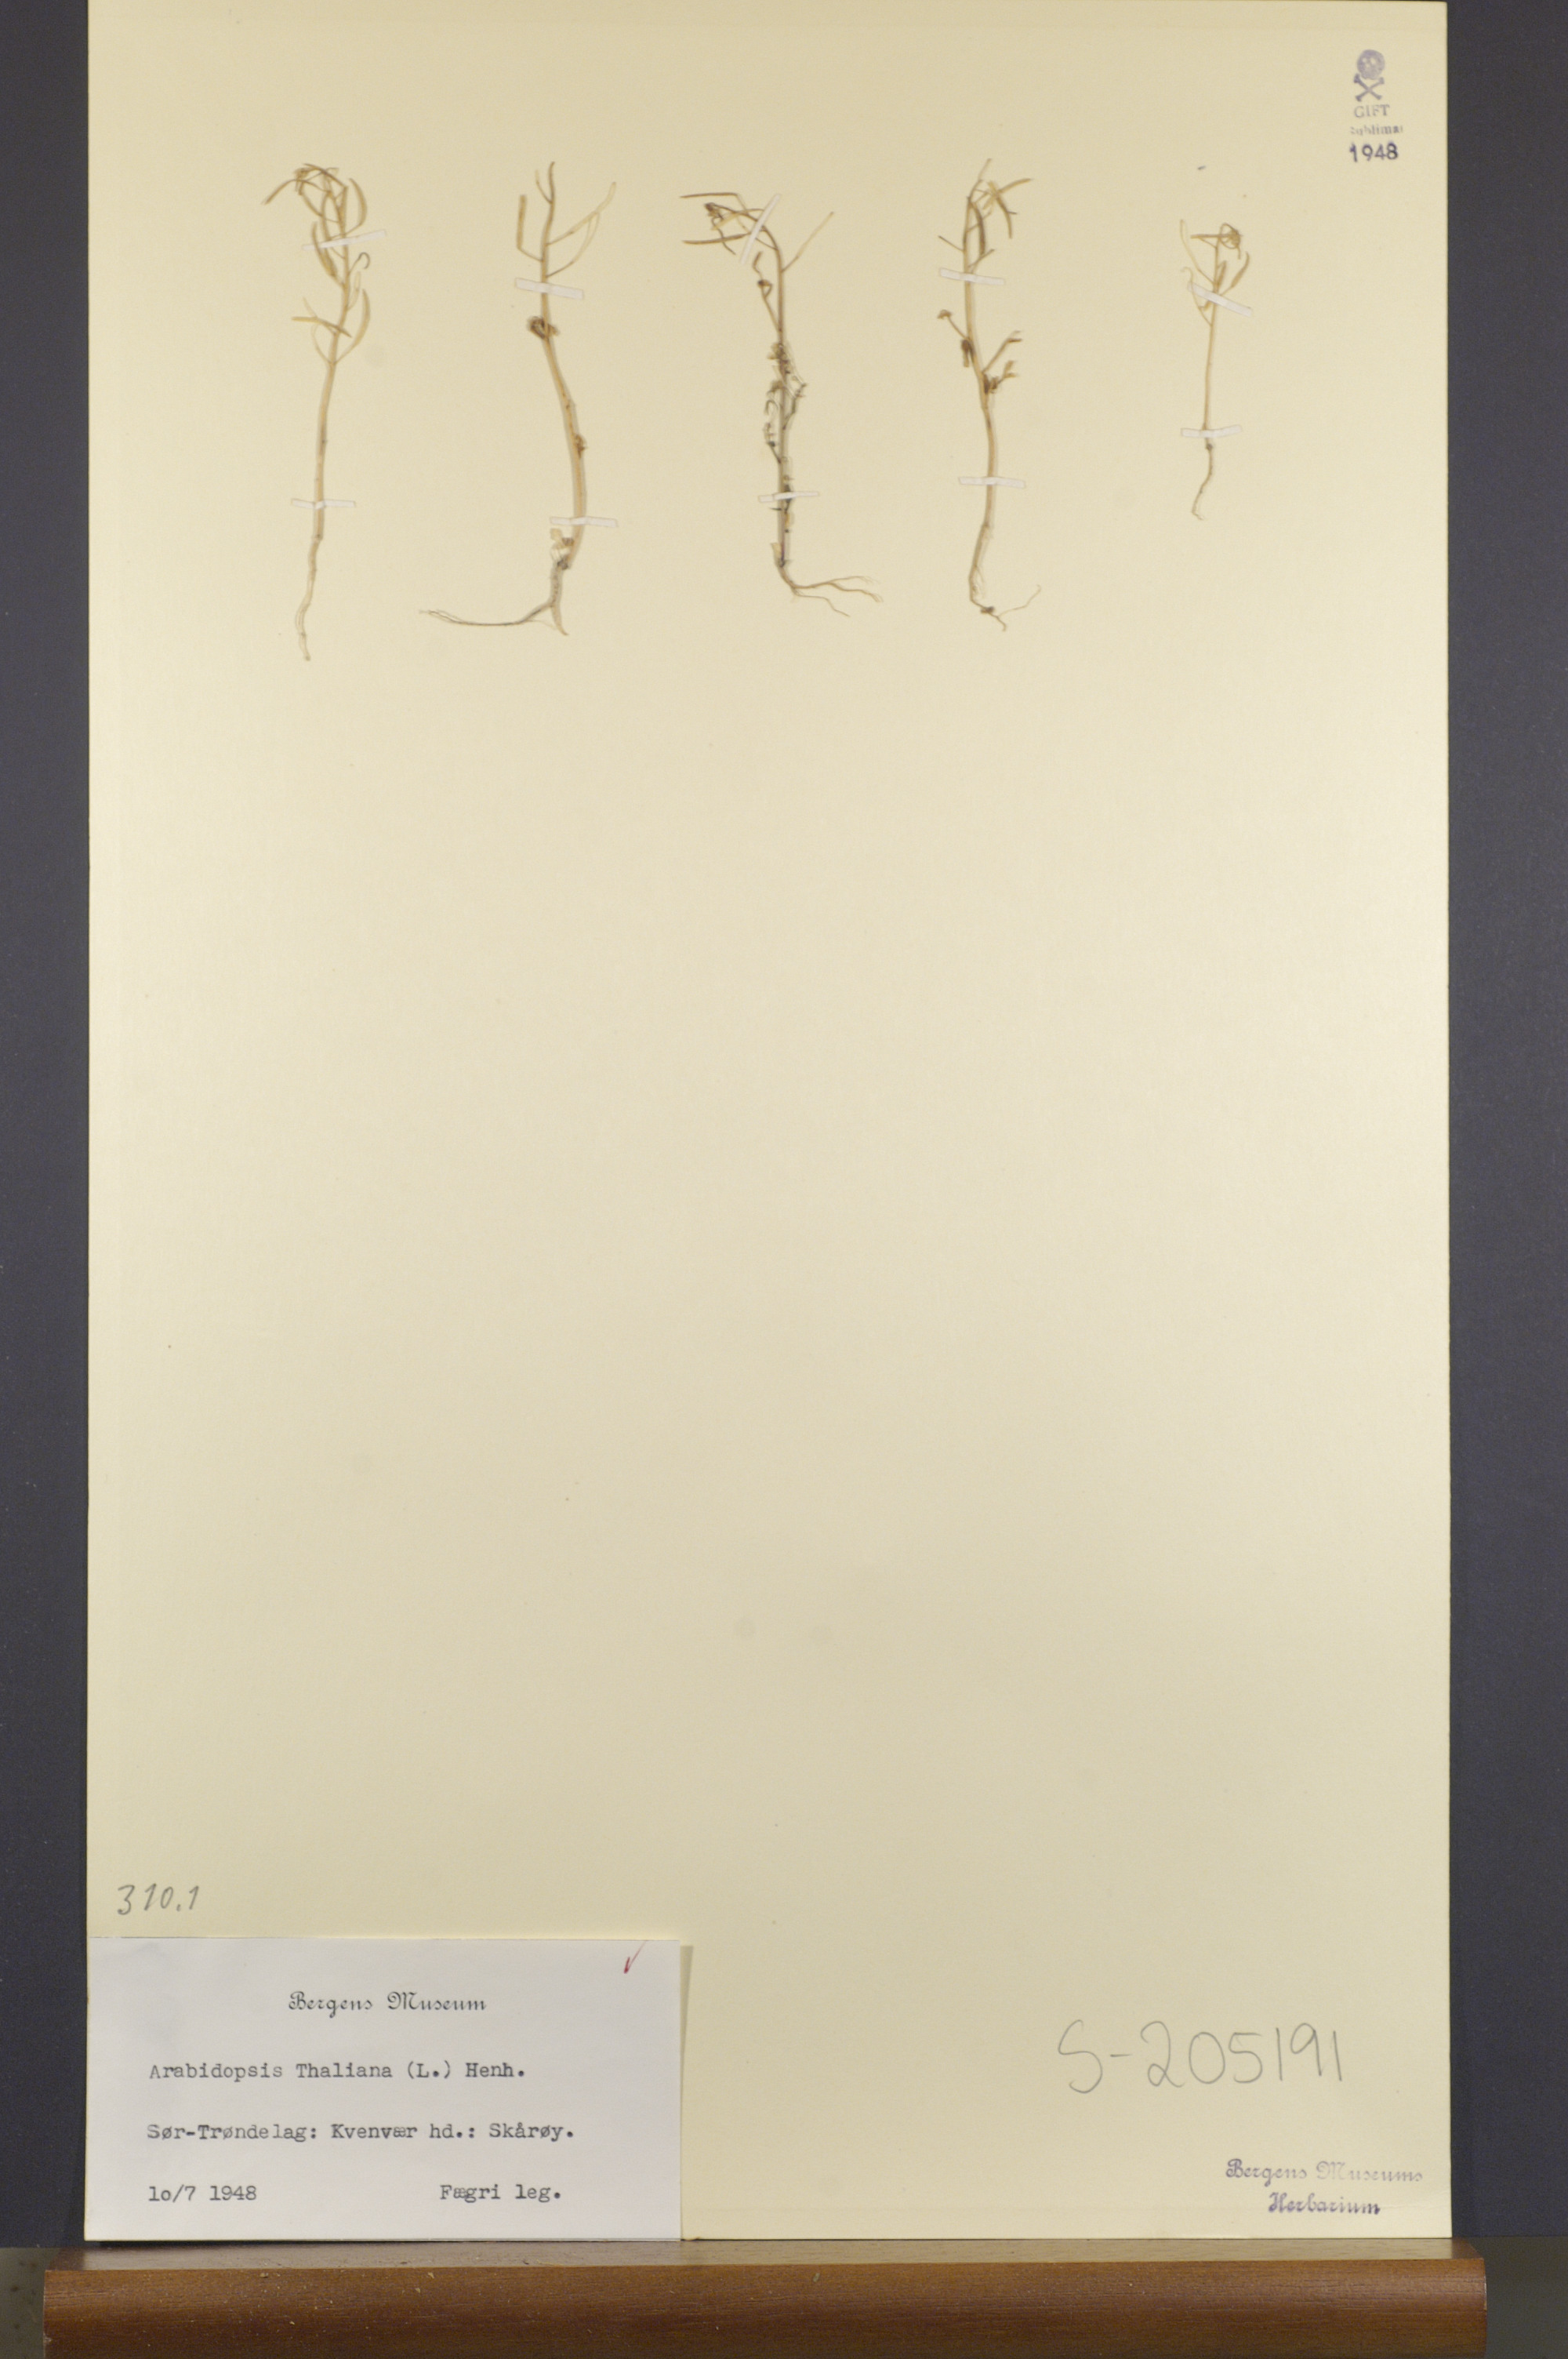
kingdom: Plantae
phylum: Tracheophyta
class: Magnoliopsida
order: Brassicales
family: Brassicaceae
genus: Arabidopsis
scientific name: Arabidopsis thaliana
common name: Thale cress
